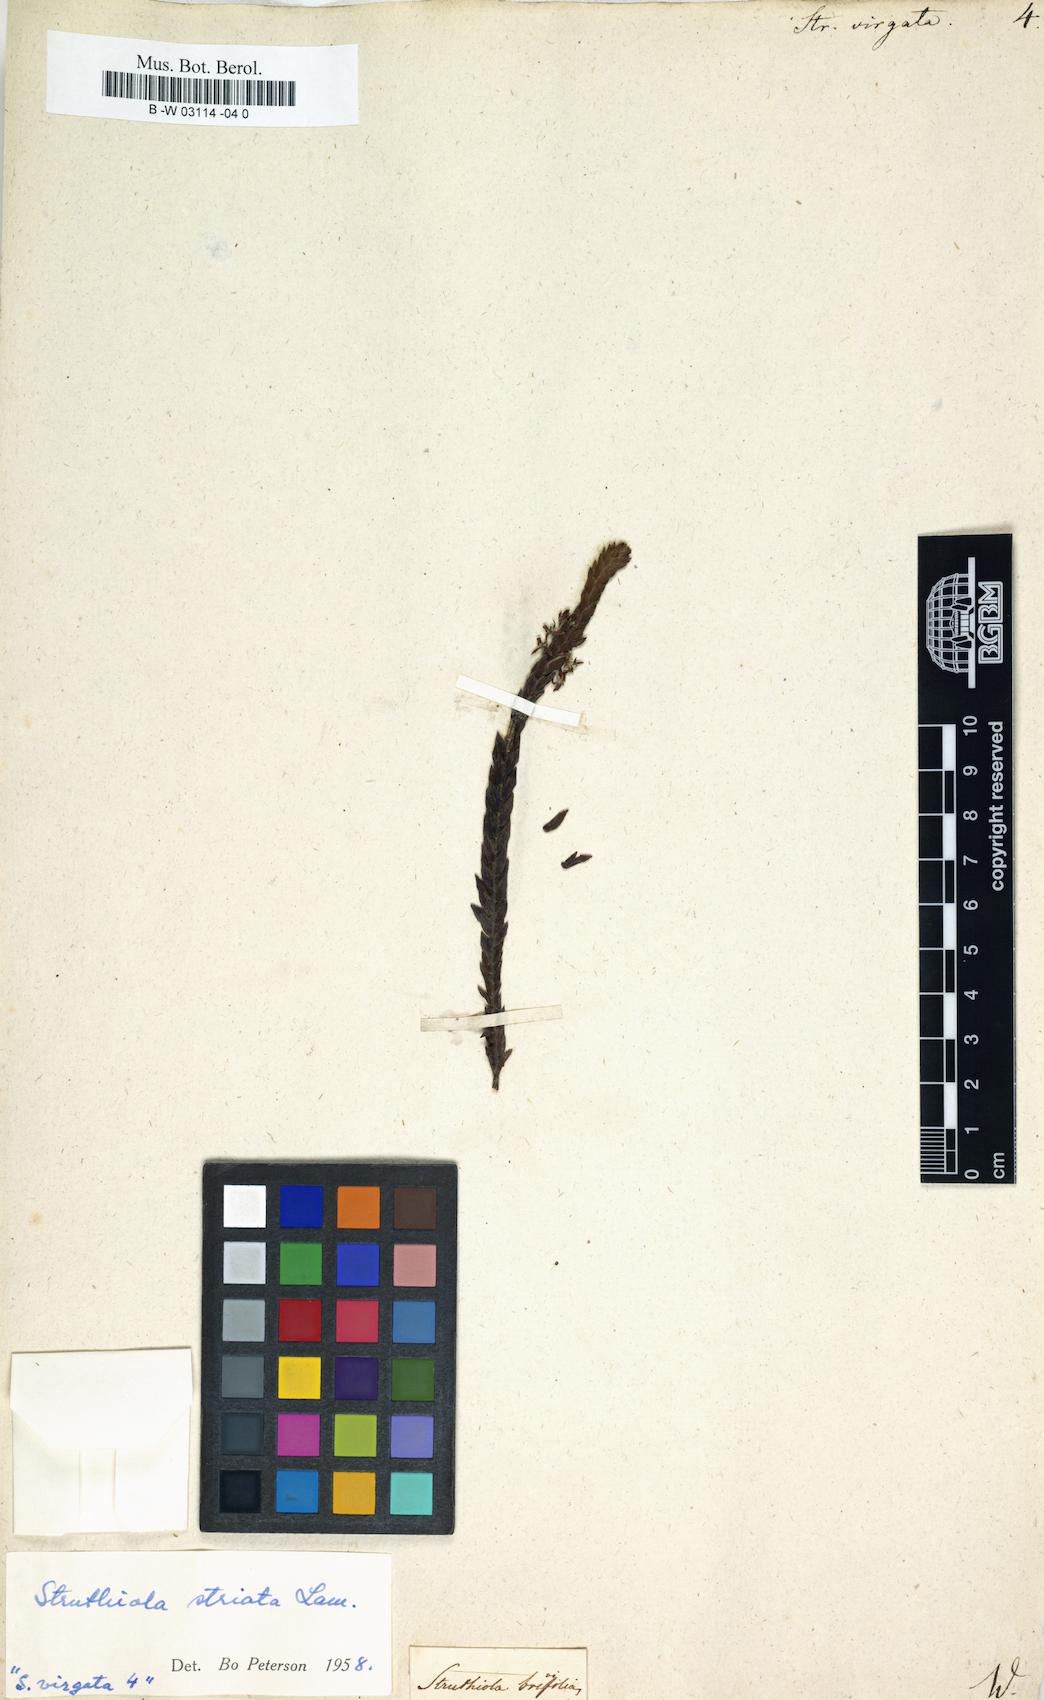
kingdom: Plantae
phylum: Tracheophyta
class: Magnoliopsida
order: Malvales
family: Thymelaeaceae
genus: Struthiola
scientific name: Struthiola ciliata
